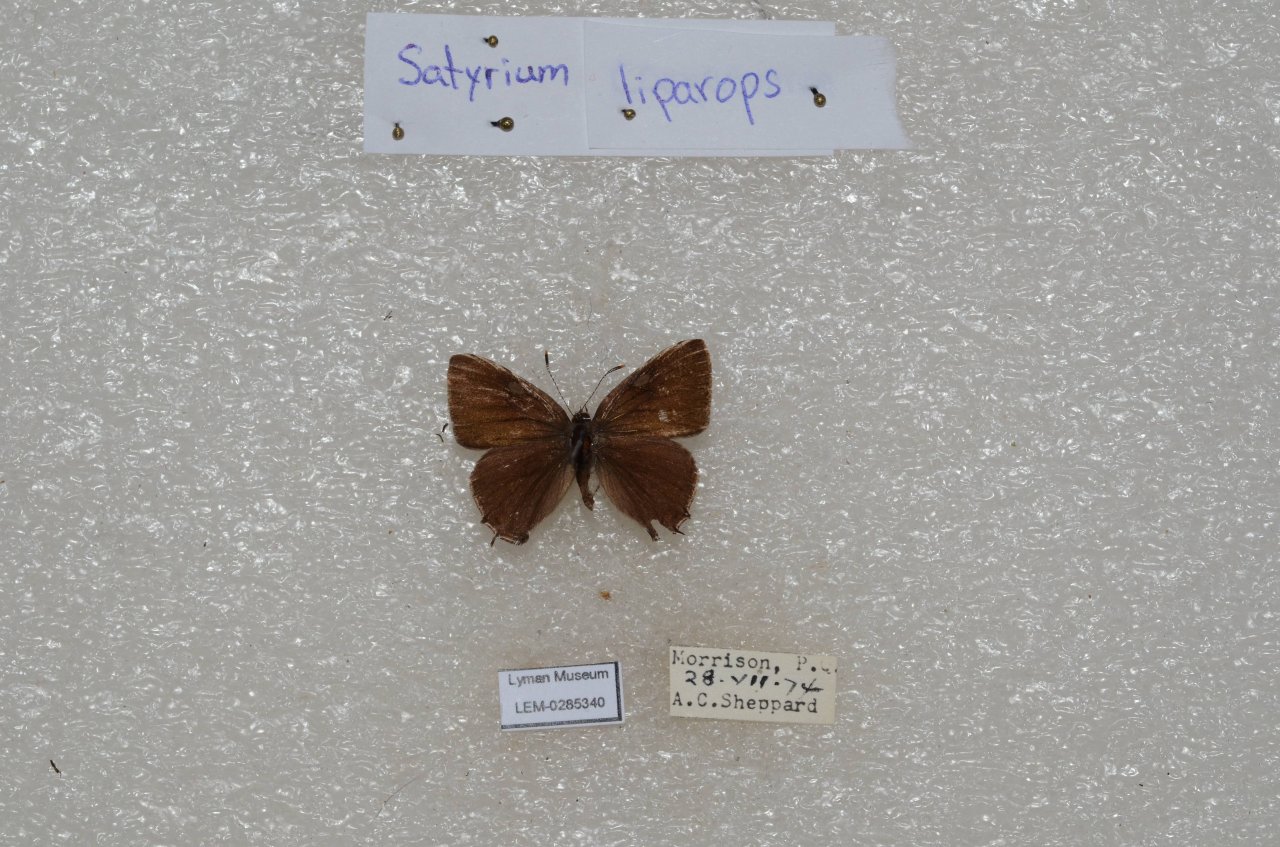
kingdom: Animalia
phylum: Arthropoda
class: Insecta
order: Lepidoptera
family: Lycaenidae
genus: Satyrium
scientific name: Satyrium liparops
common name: Striped Hairstreak
